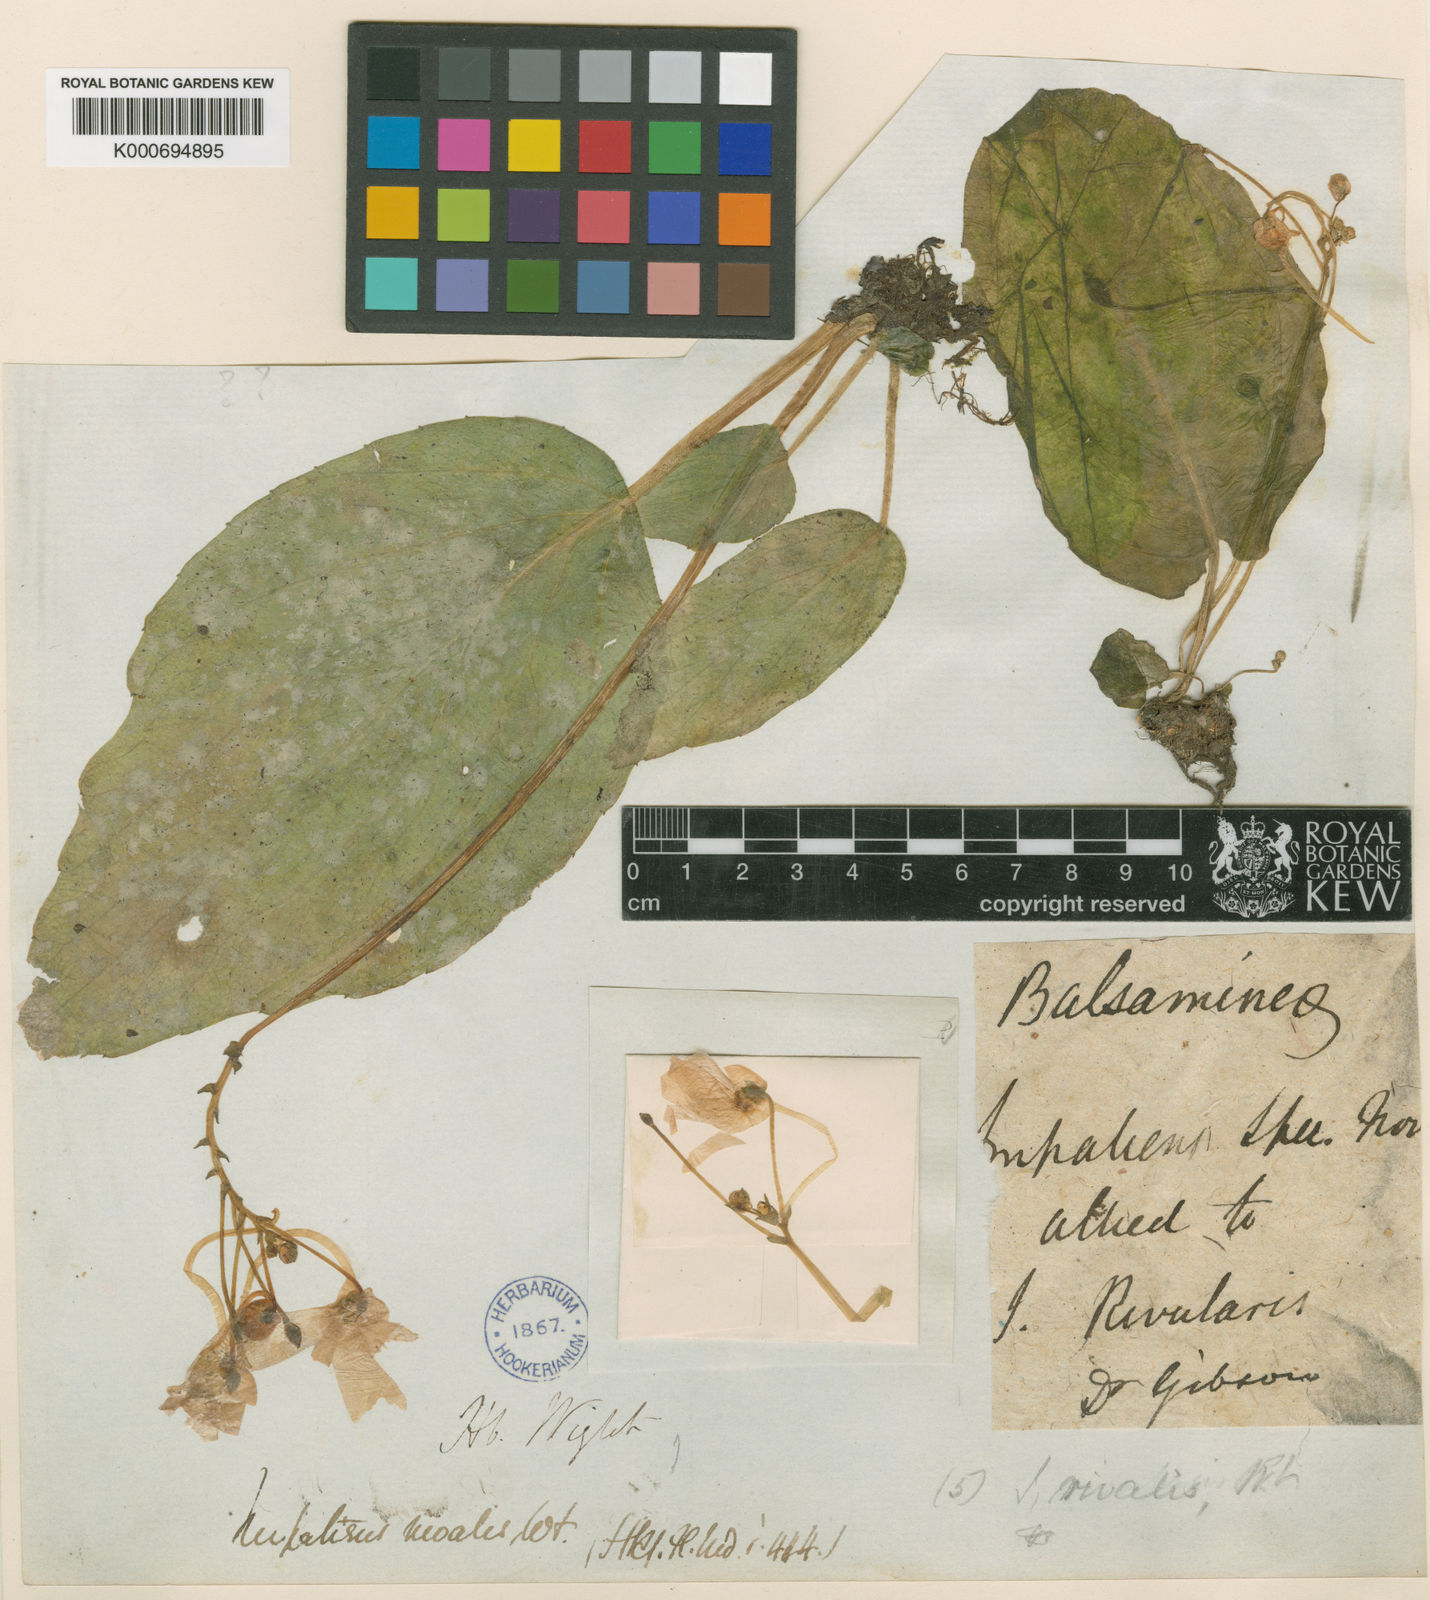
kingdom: Plantae
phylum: Tracheophyta
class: Magnoliopsida
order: Ericales
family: Balsaminaceae
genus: Impatiens
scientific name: Impatiens
